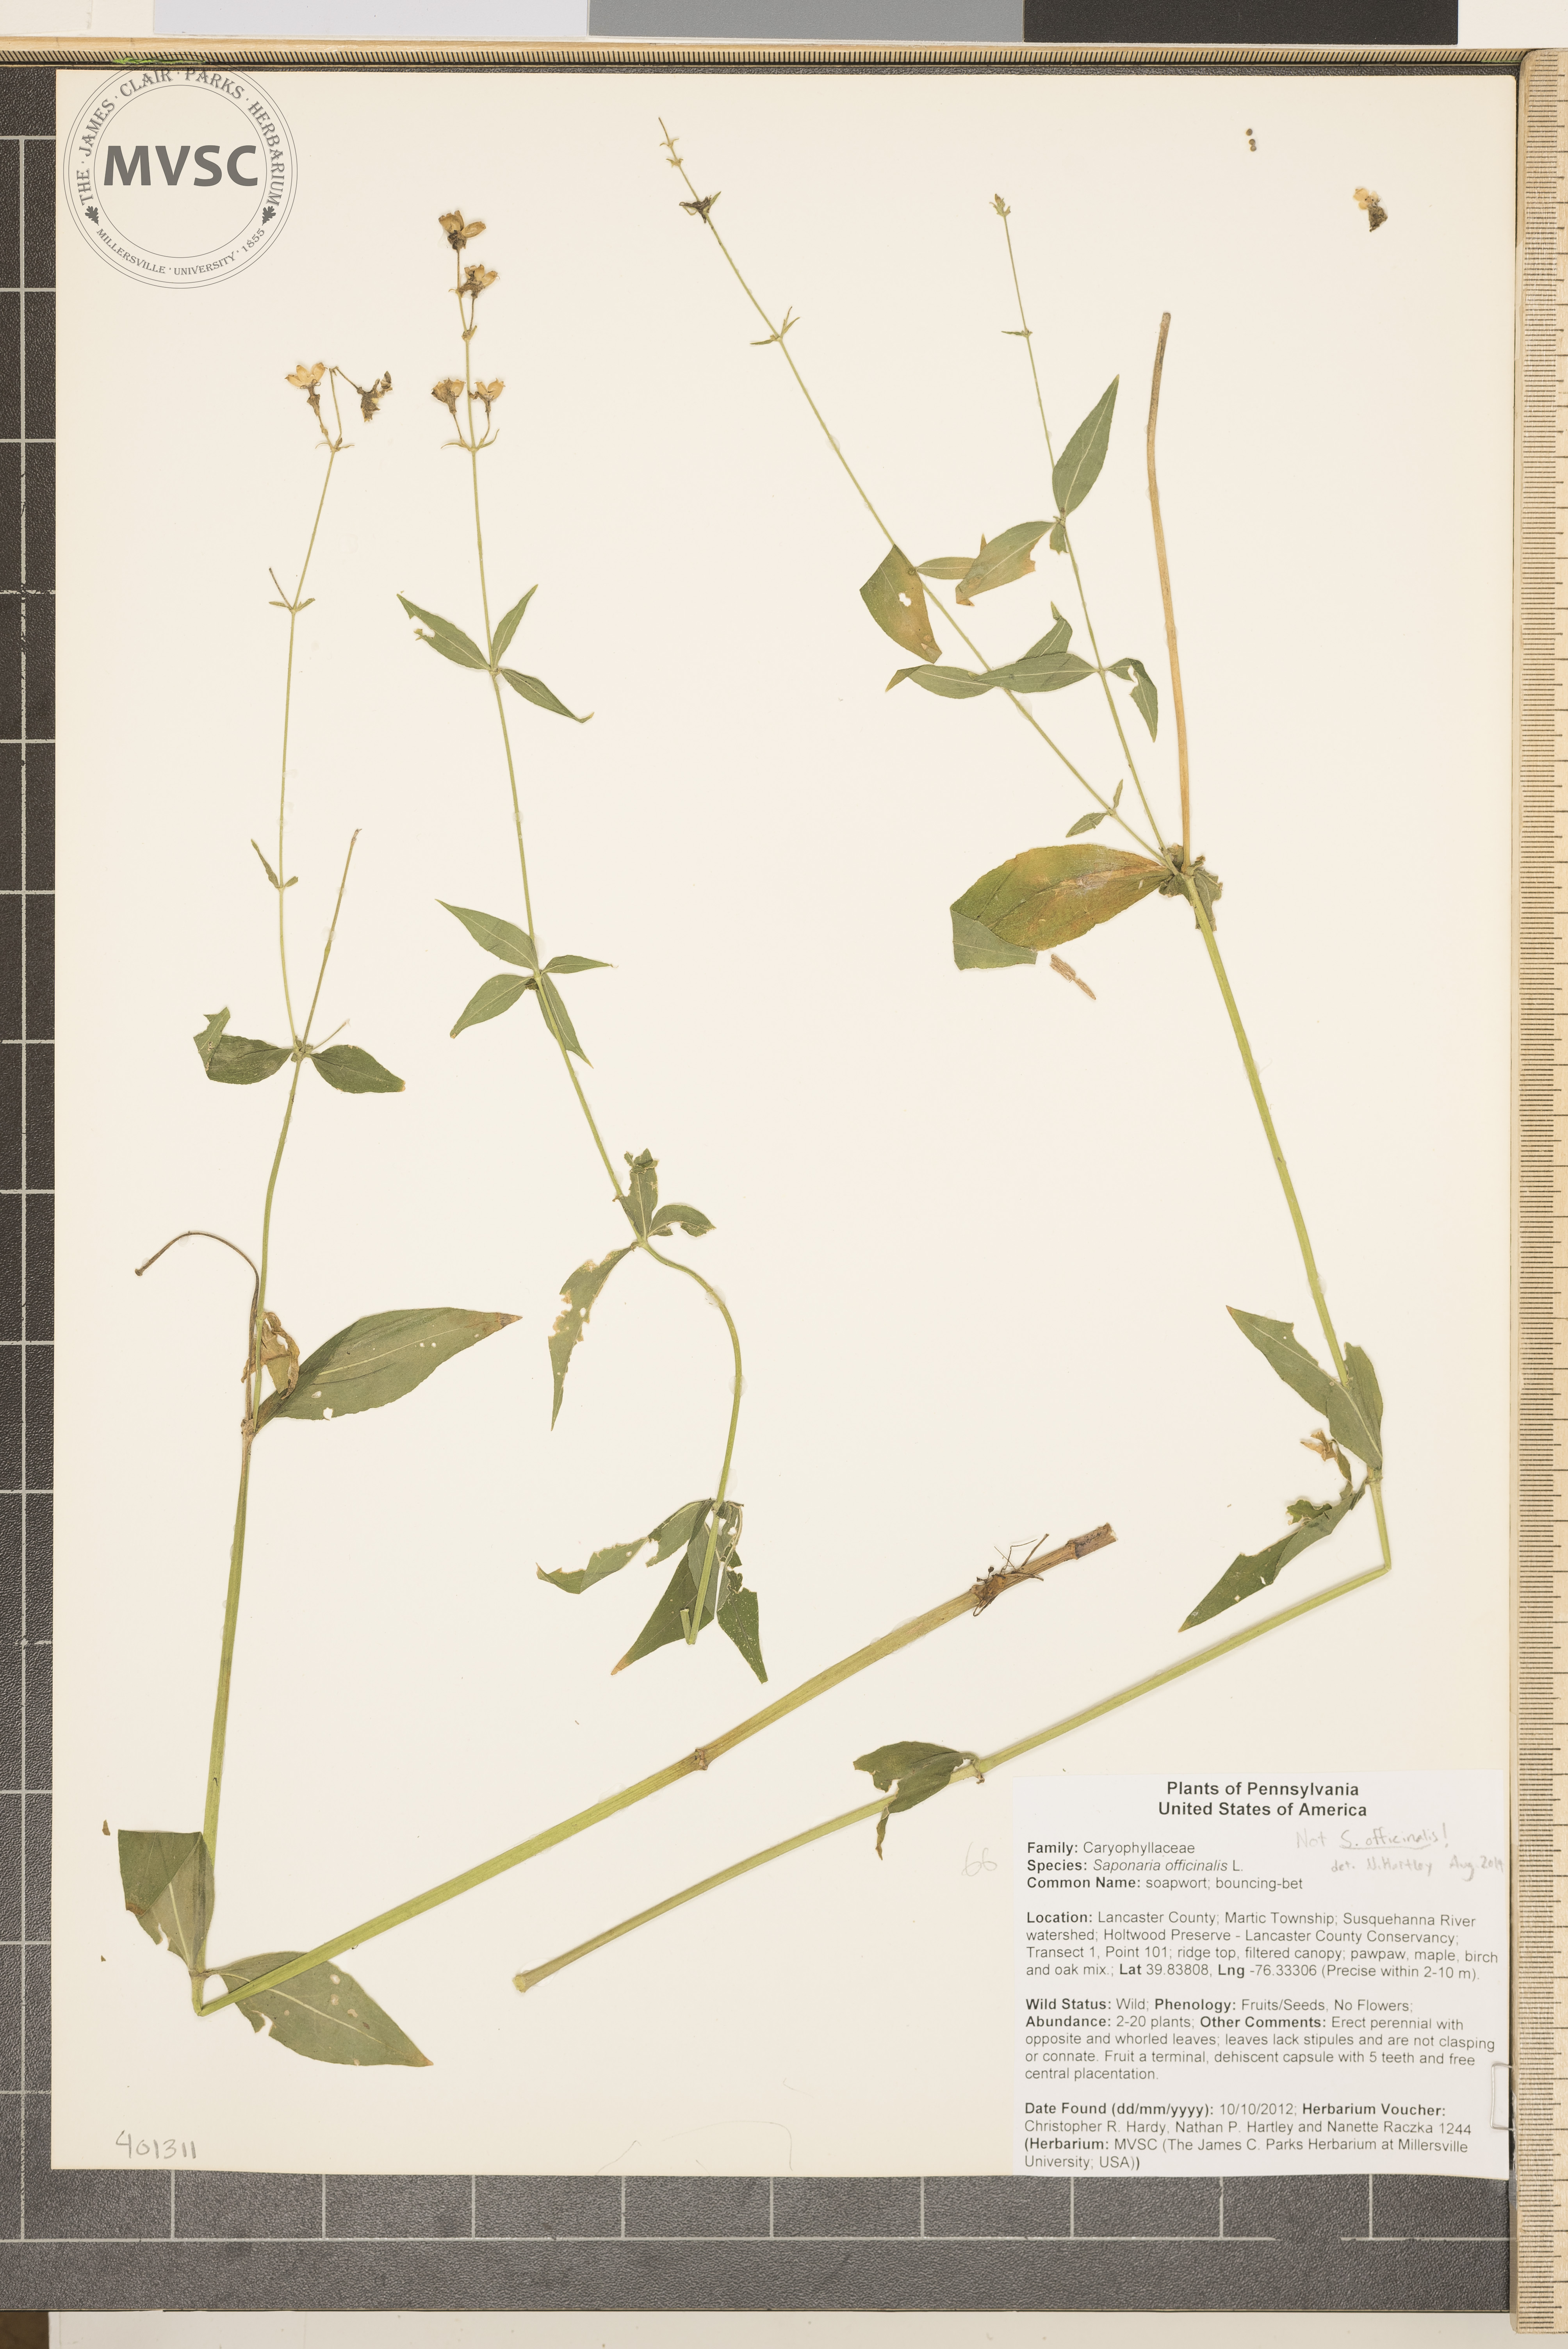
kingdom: Plantae
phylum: Tracheophyta
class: Magnoliopsida
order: Caryophyllales
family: Caryophyllaceae
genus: Saponaria
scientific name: Saponaria officinalis
